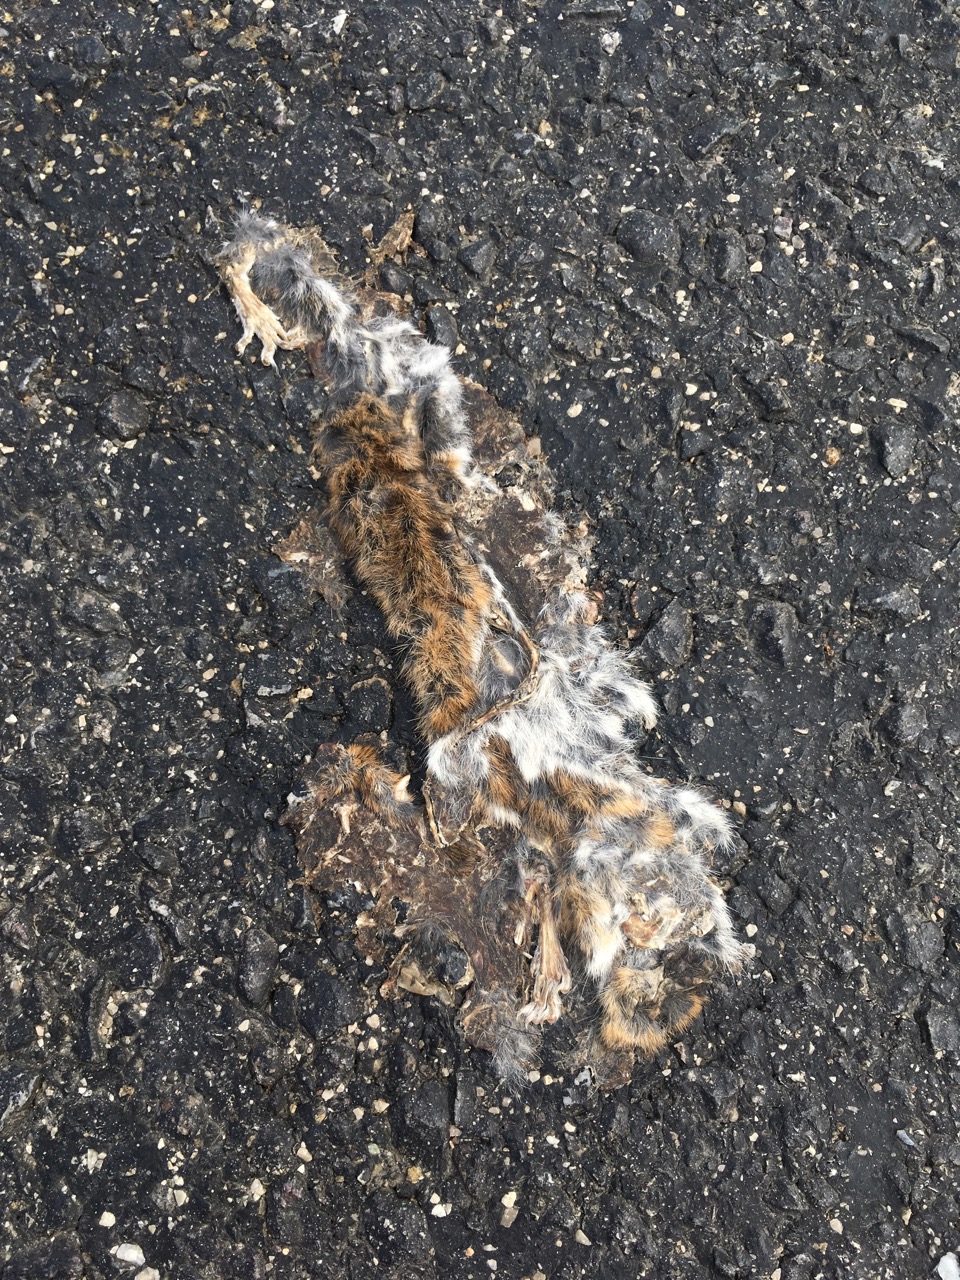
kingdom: Animalia
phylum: Chordata
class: Mammalia
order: Rodentia
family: Muridae
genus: Apodemus
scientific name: Apodemus
